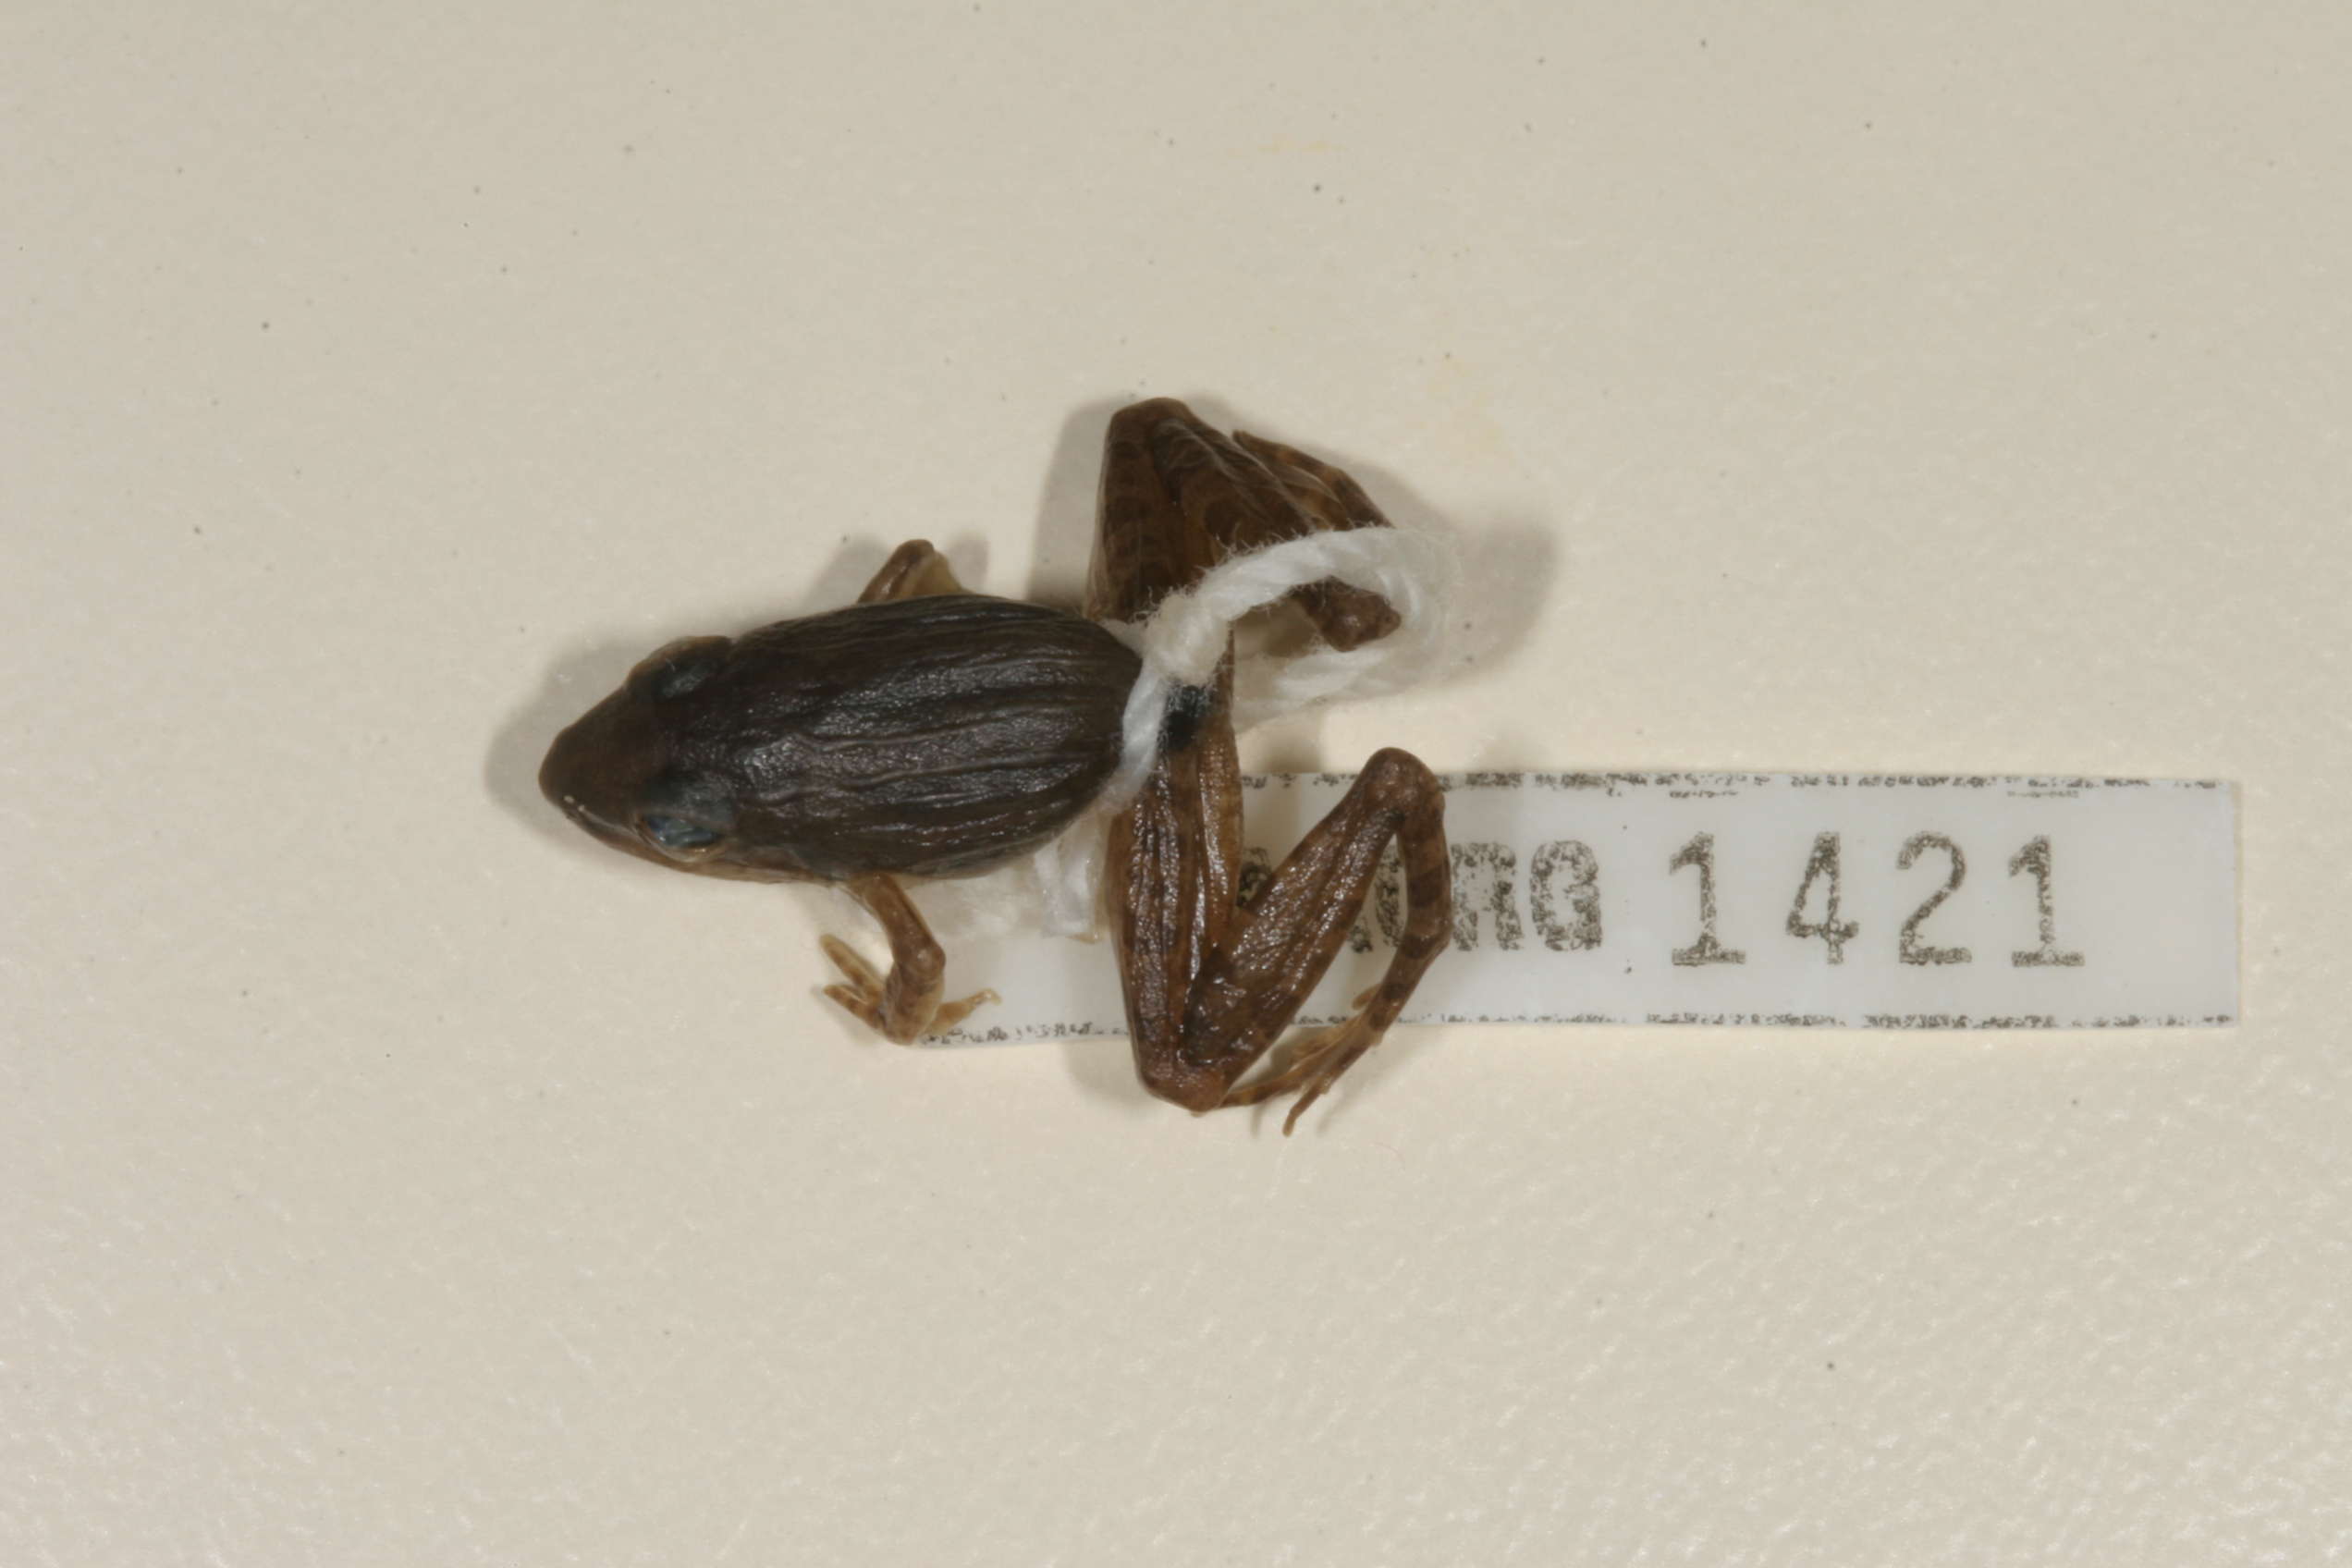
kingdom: Animalia
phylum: Chordata
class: Amphibia
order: Anura
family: Ptychadenidae
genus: Ptychadena
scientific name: Ptychadena anchietae
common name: Anchieta's ridged frog
